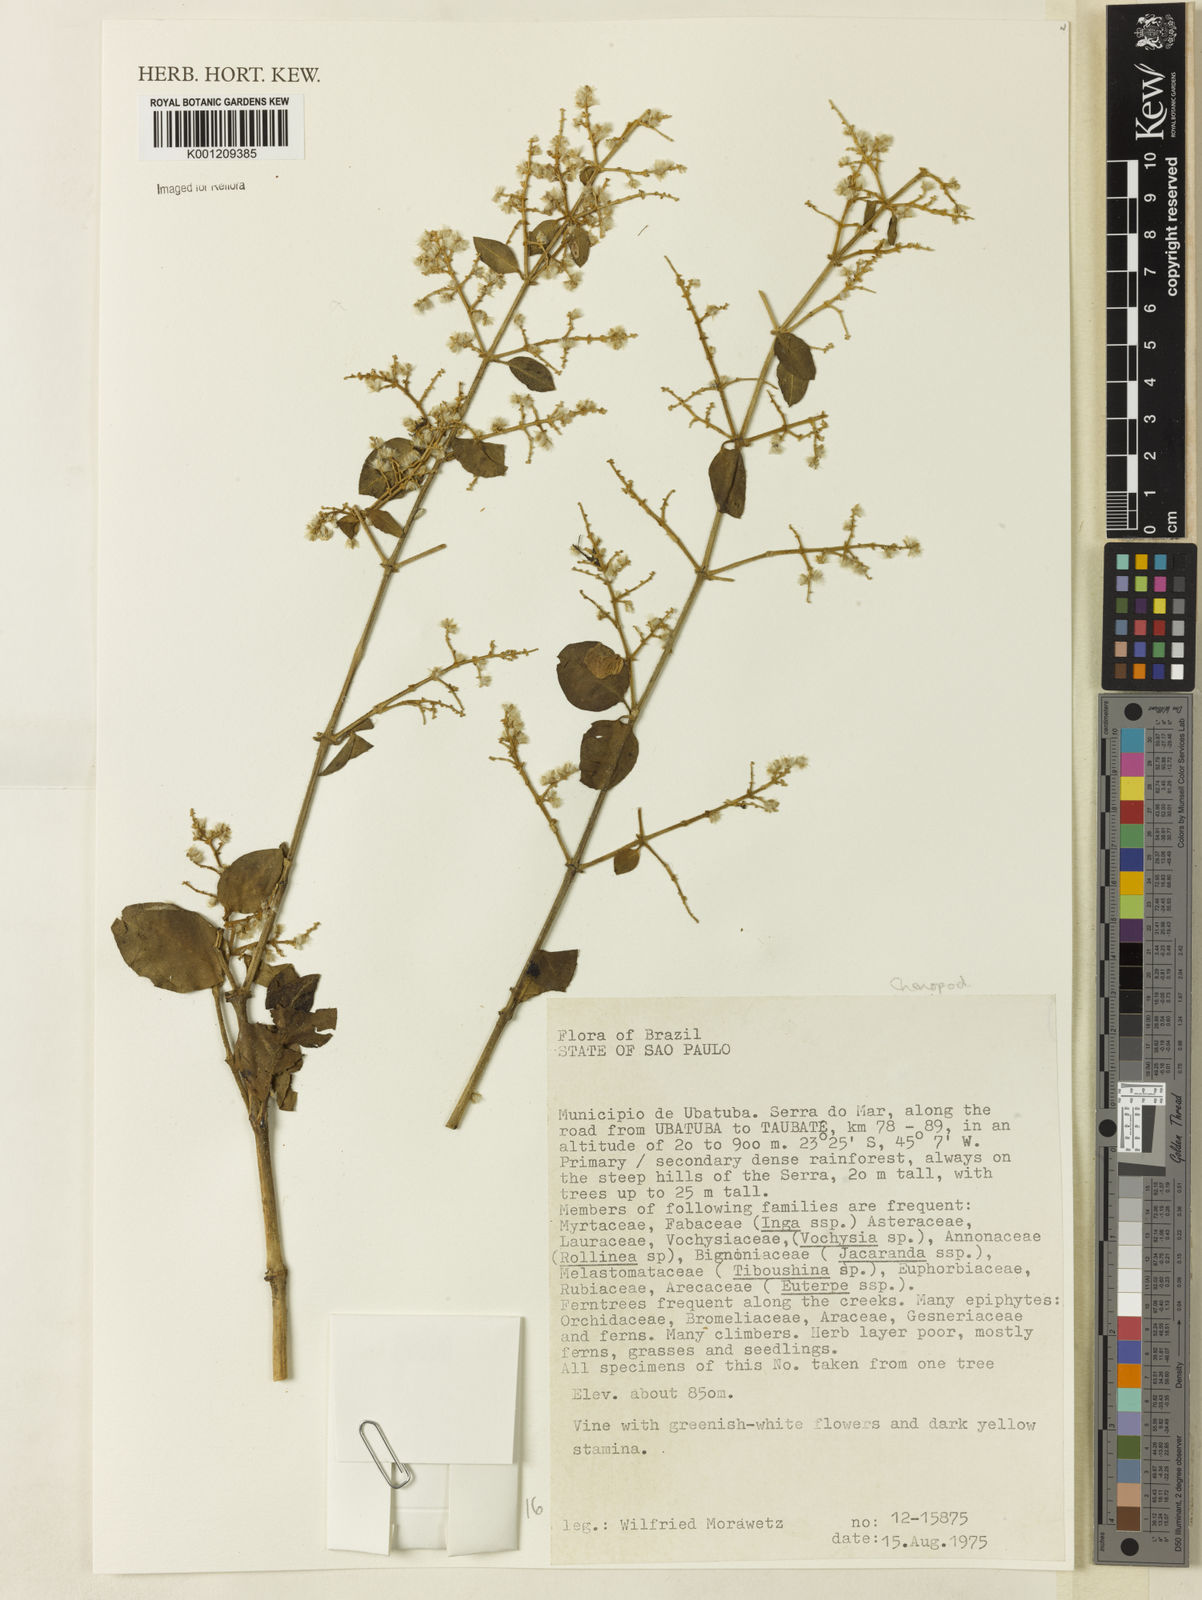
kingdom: Plantae
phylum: Tracheophyta
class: Magnoliopsida
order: Caryophyllales
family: Amaranthaceae
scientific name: Amaranthaceae
